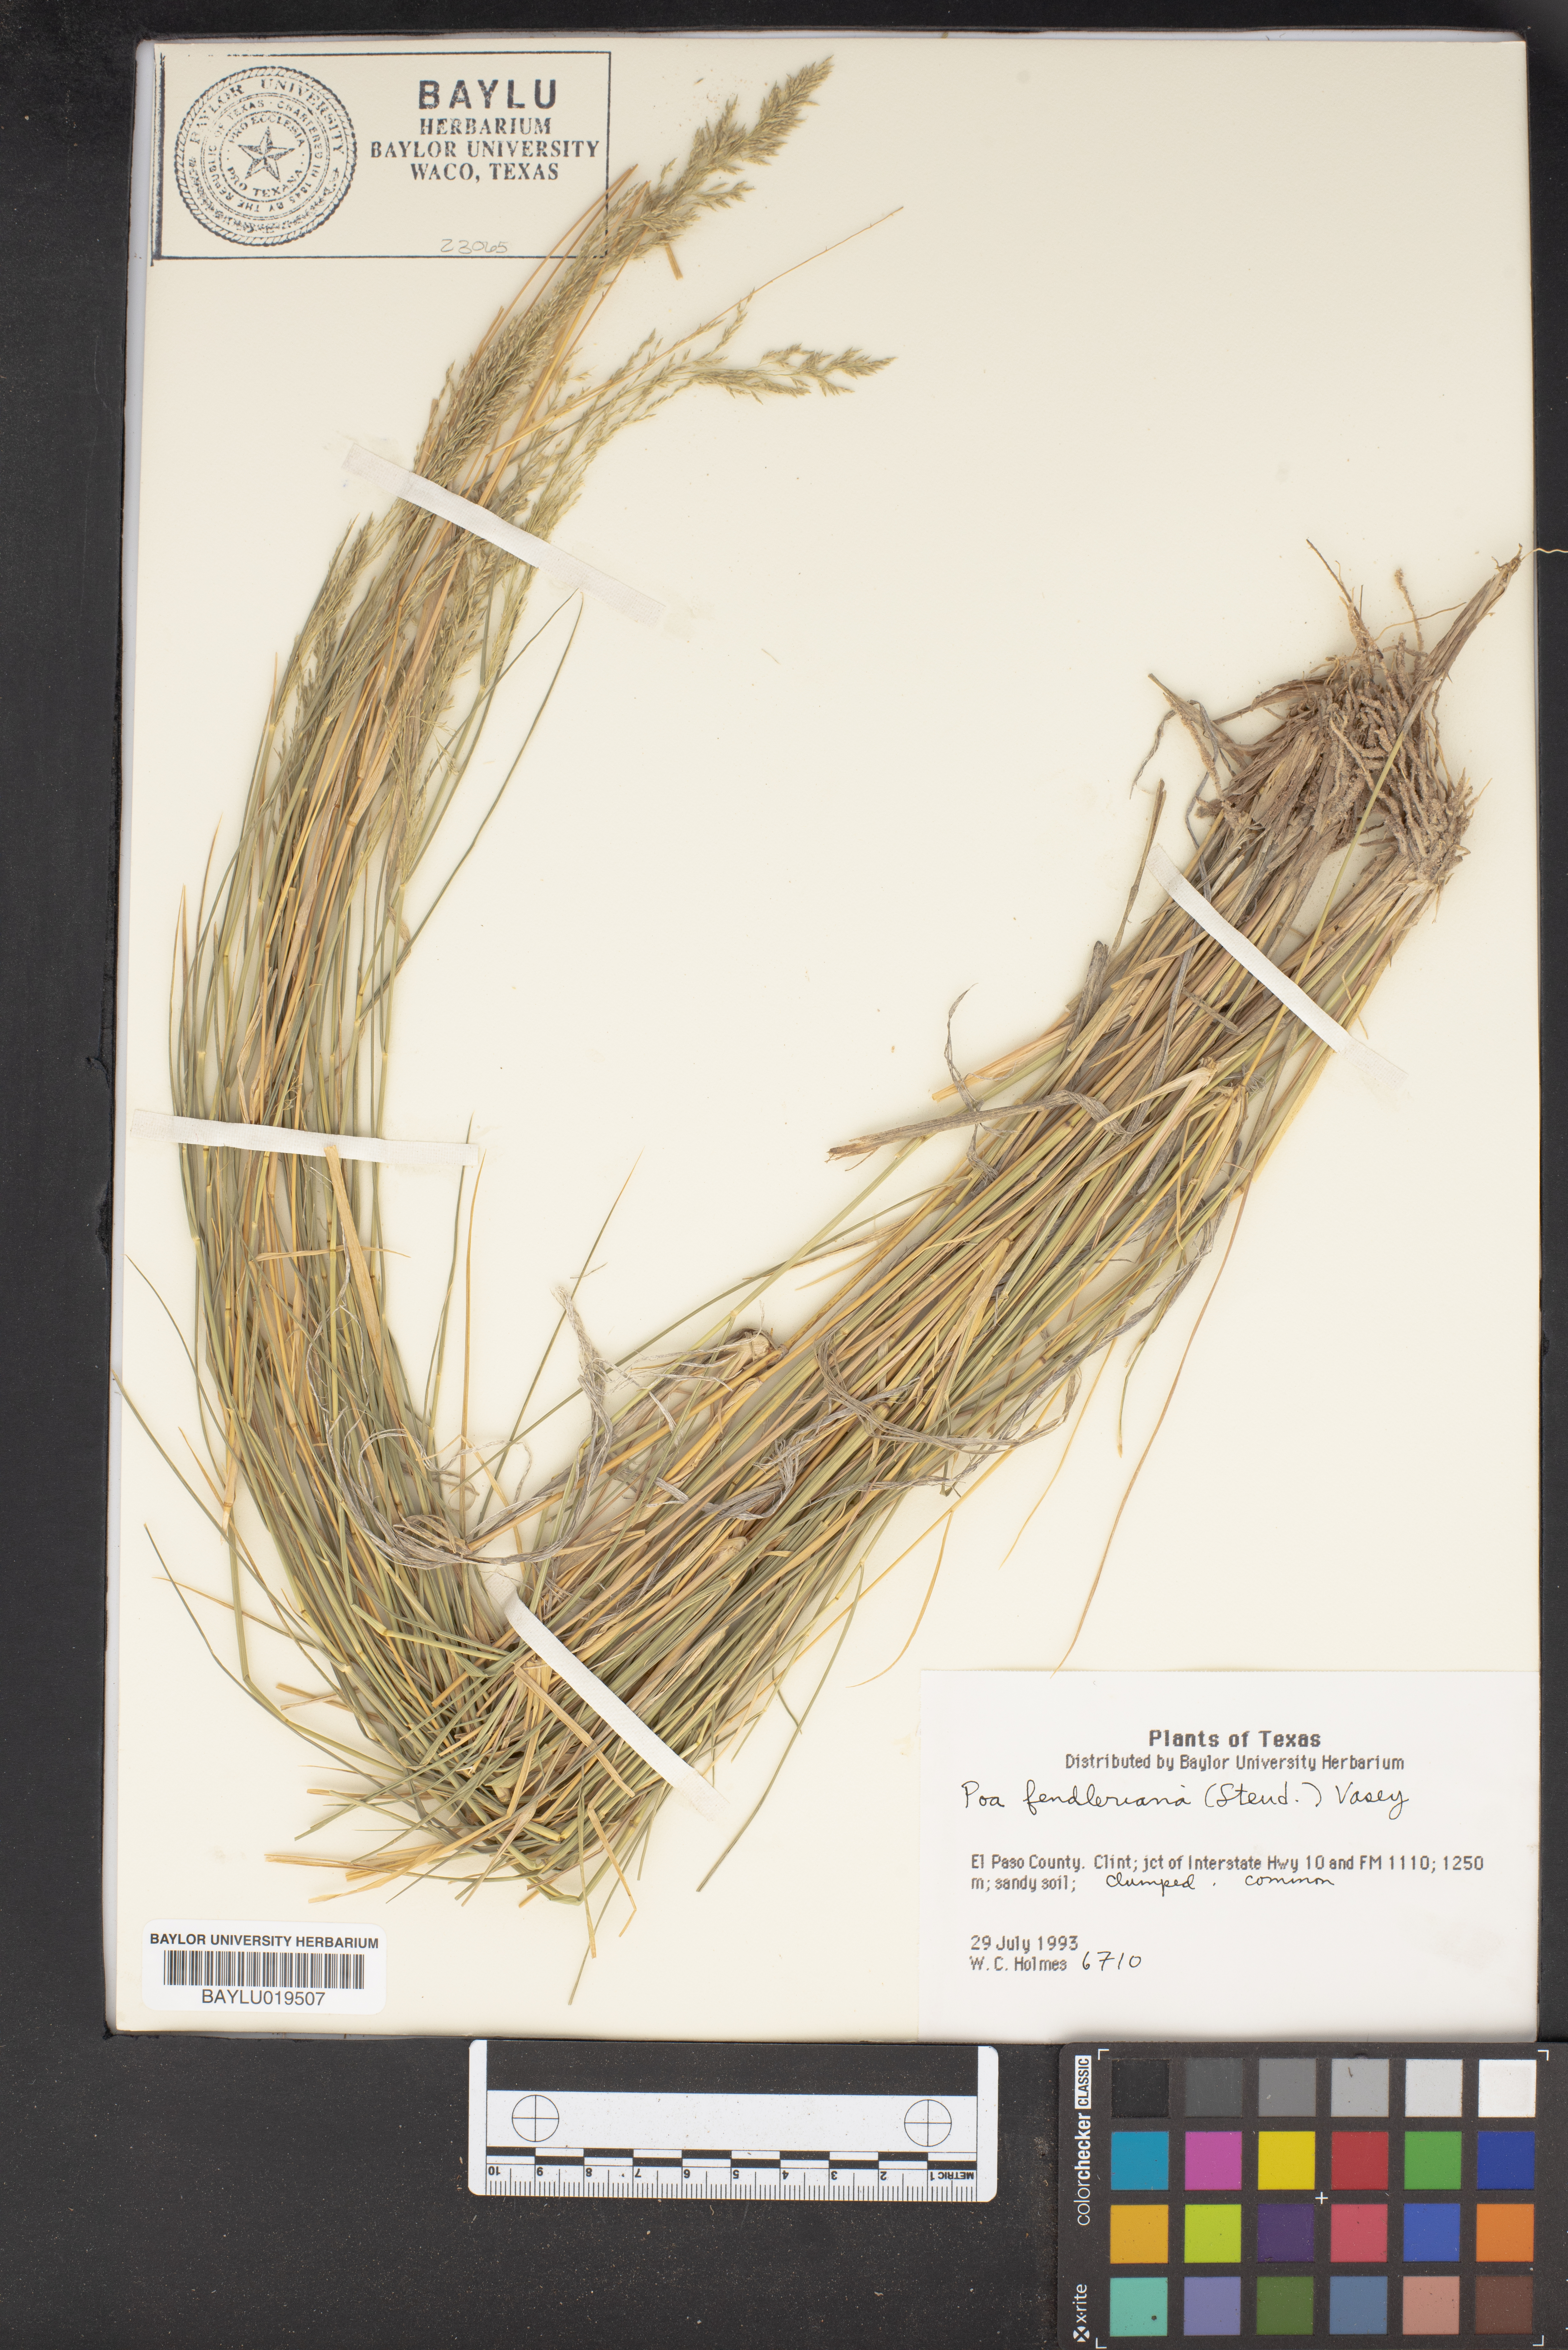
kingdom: Plantae
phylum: Tracheophyta
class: Liliopsida
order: Poales
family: Poaceae
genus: Poa
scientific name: Poa fendleriana
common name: Mutton bluegrass
